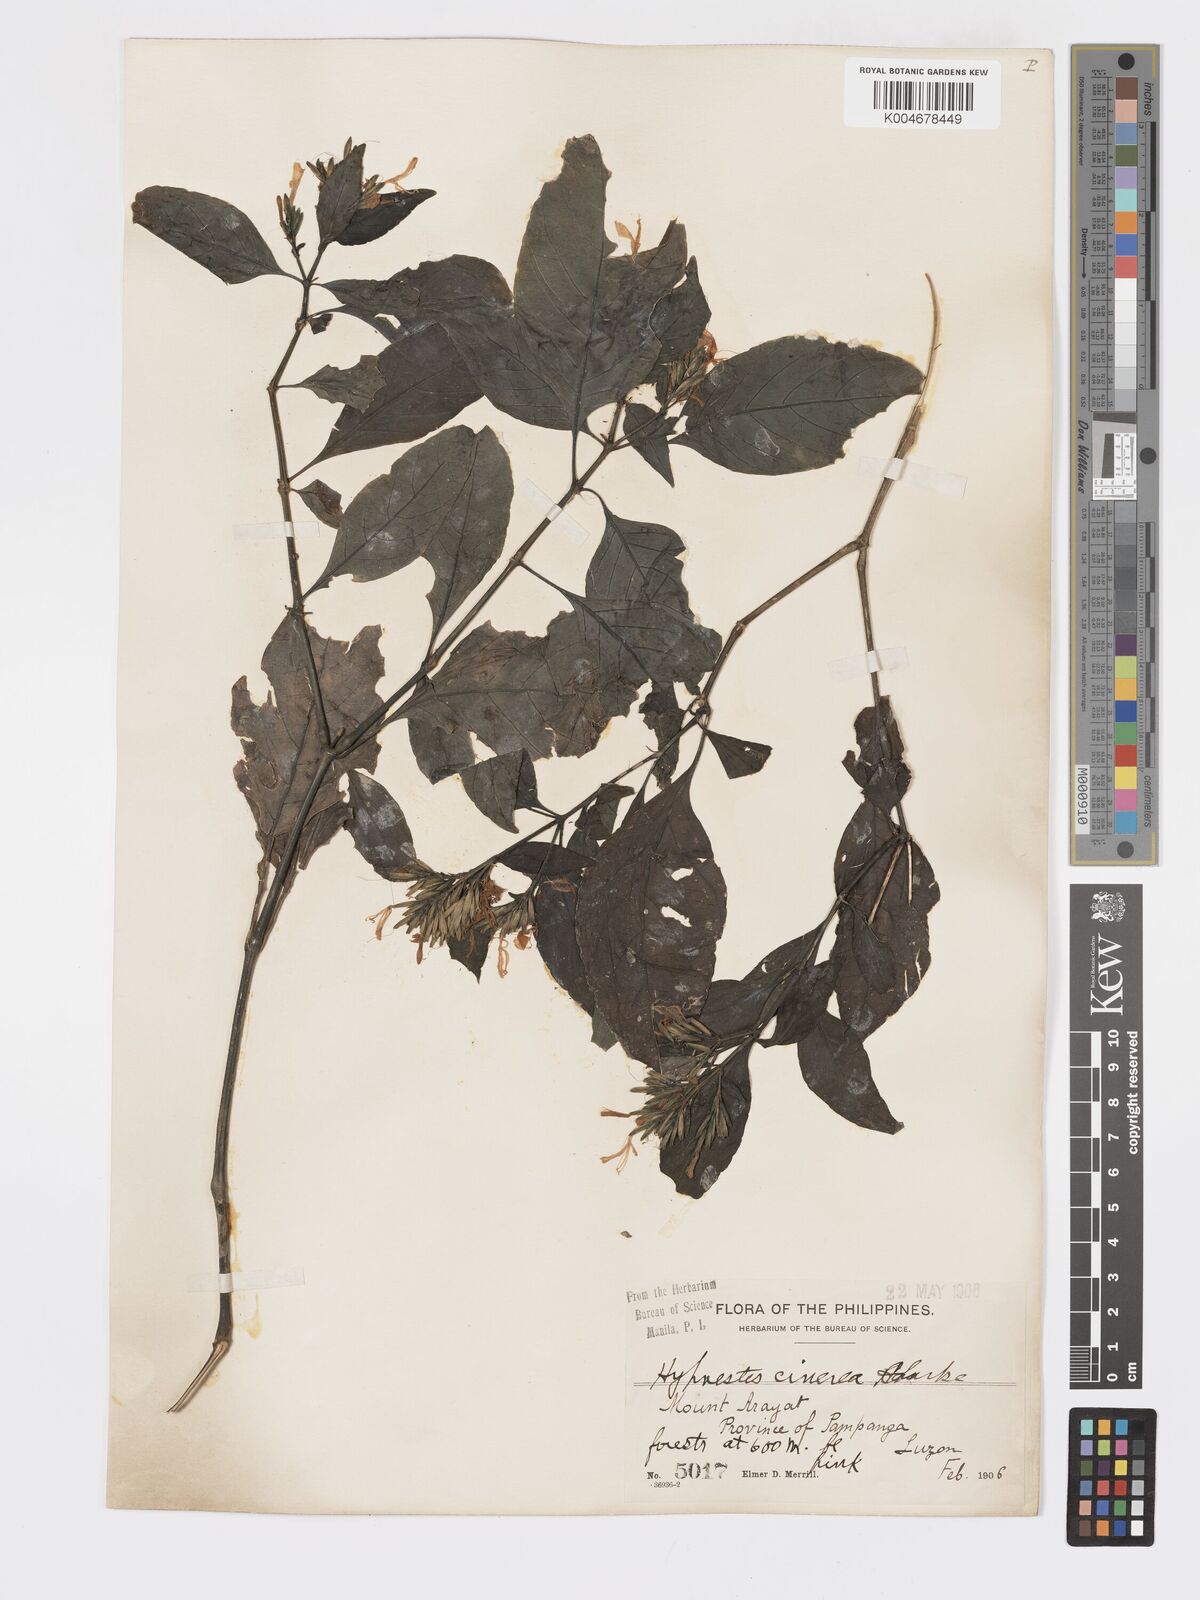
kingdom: Plantae
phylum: Tracheophyta
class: Magnoliopsida
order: Lamiales
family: Acanthaceae
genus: Hypoestes
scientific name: Hypoestes
